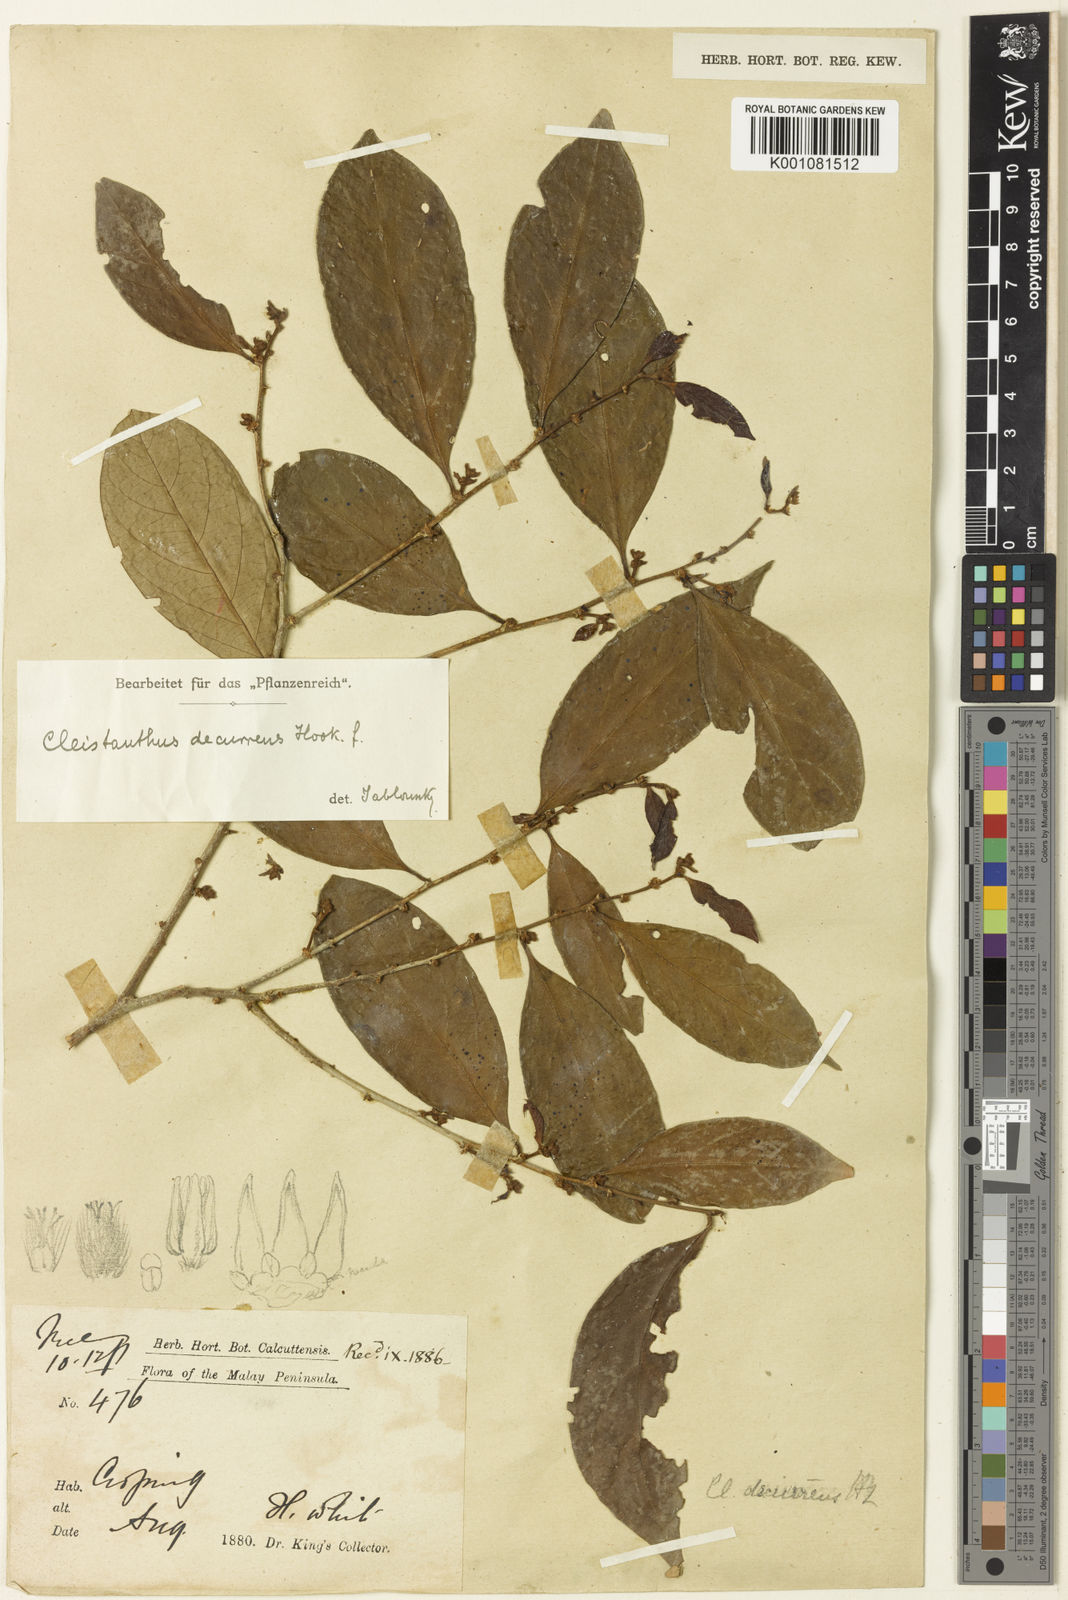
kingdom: Plantae
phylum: Tracheophyta
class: Magnoliopsida
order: Malpighiales
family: Phyllanthaceae
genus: Cleistanthus
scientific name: Cleistanthus decurrens
